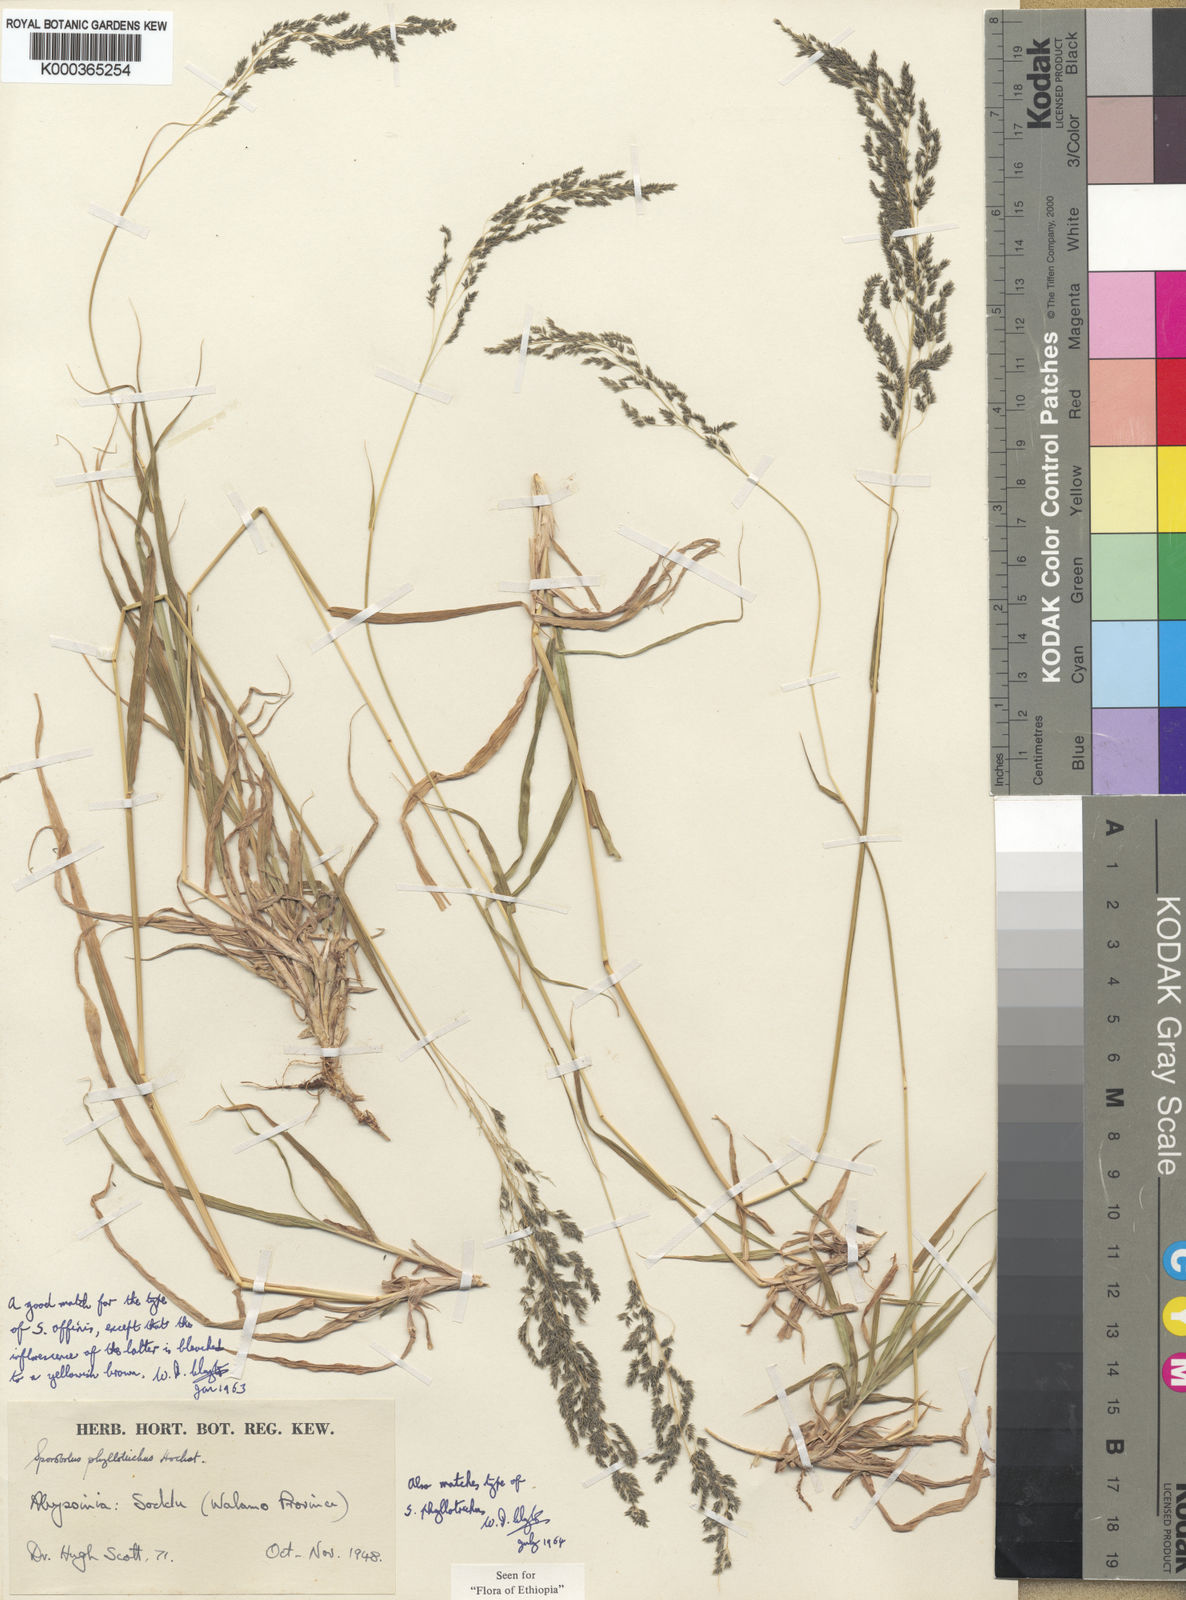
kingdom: Plantae
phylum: Tracheophyta
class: Liliopsida
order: Poales
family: Poaceae
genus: Sporobolus
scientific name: Sporobolus confinis
